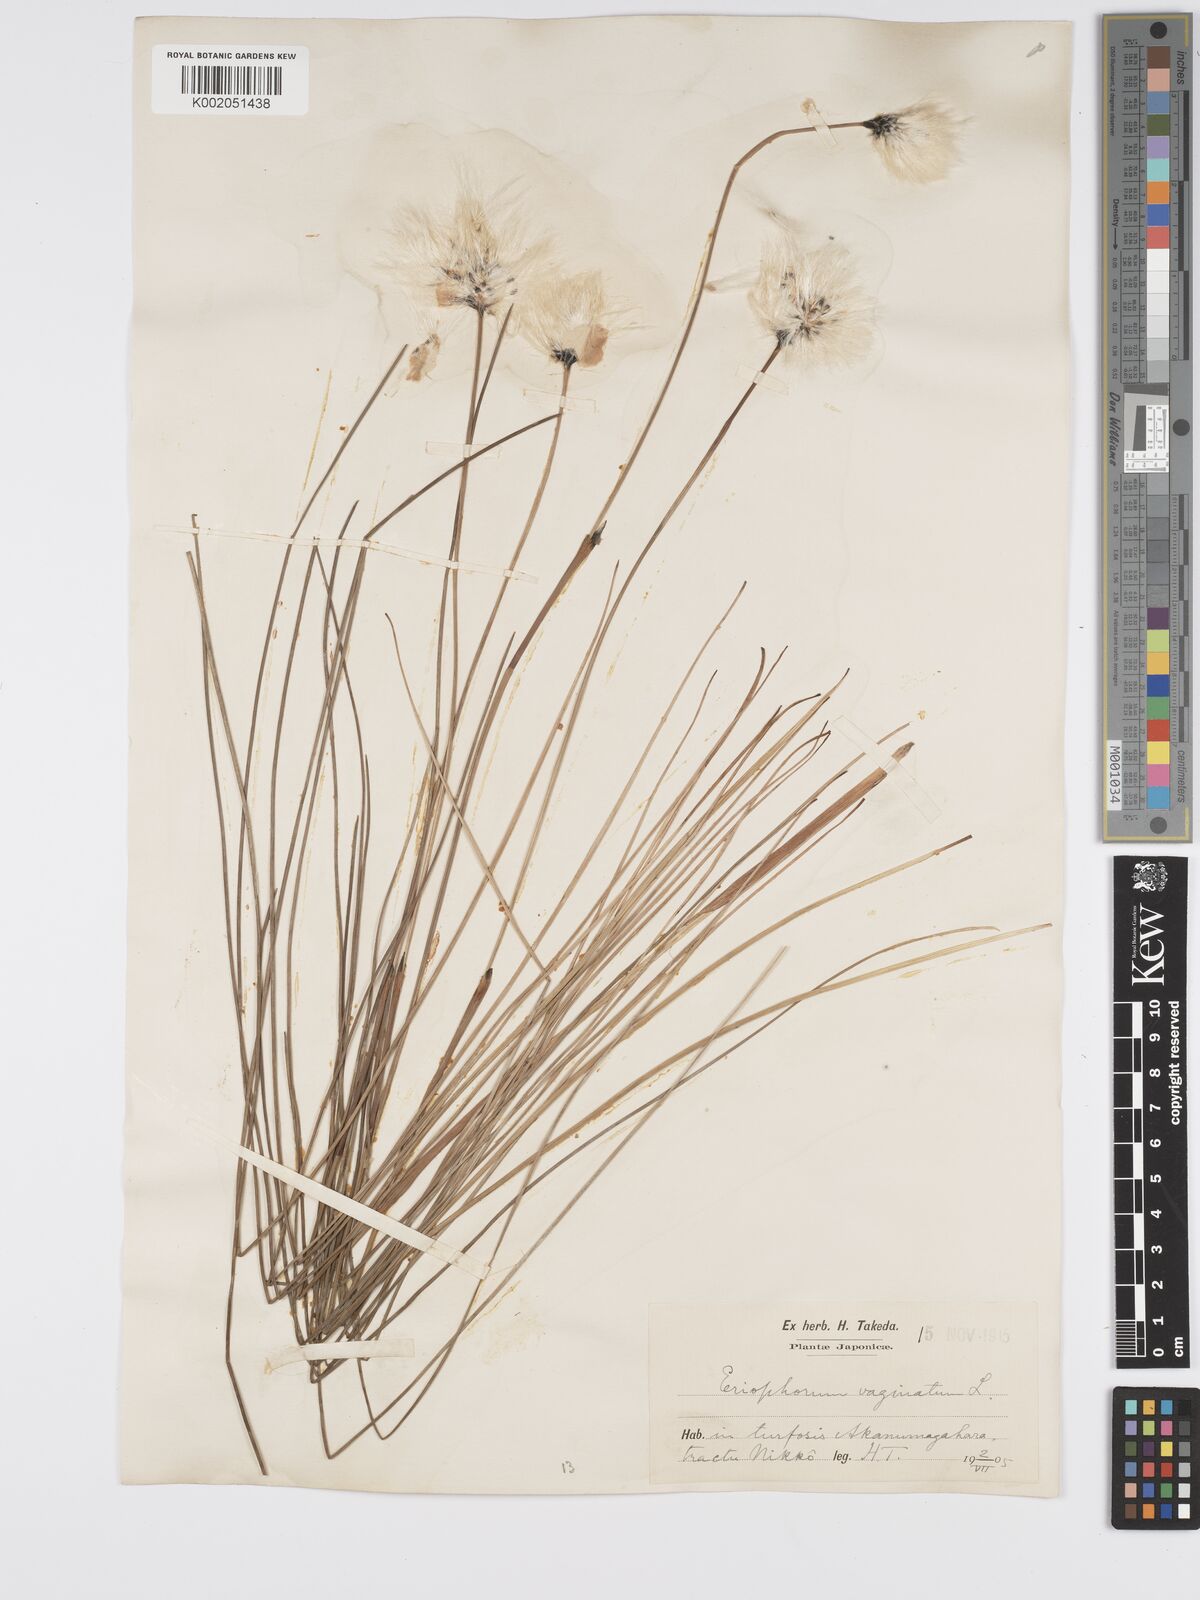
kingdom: Plantae
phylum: Tracheophyta
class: Liliopsida
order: Poales
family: Cyperaceae
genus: Eriophorum
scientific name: Eriophorum vaginatum
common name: Hare's-tail cottongrass
